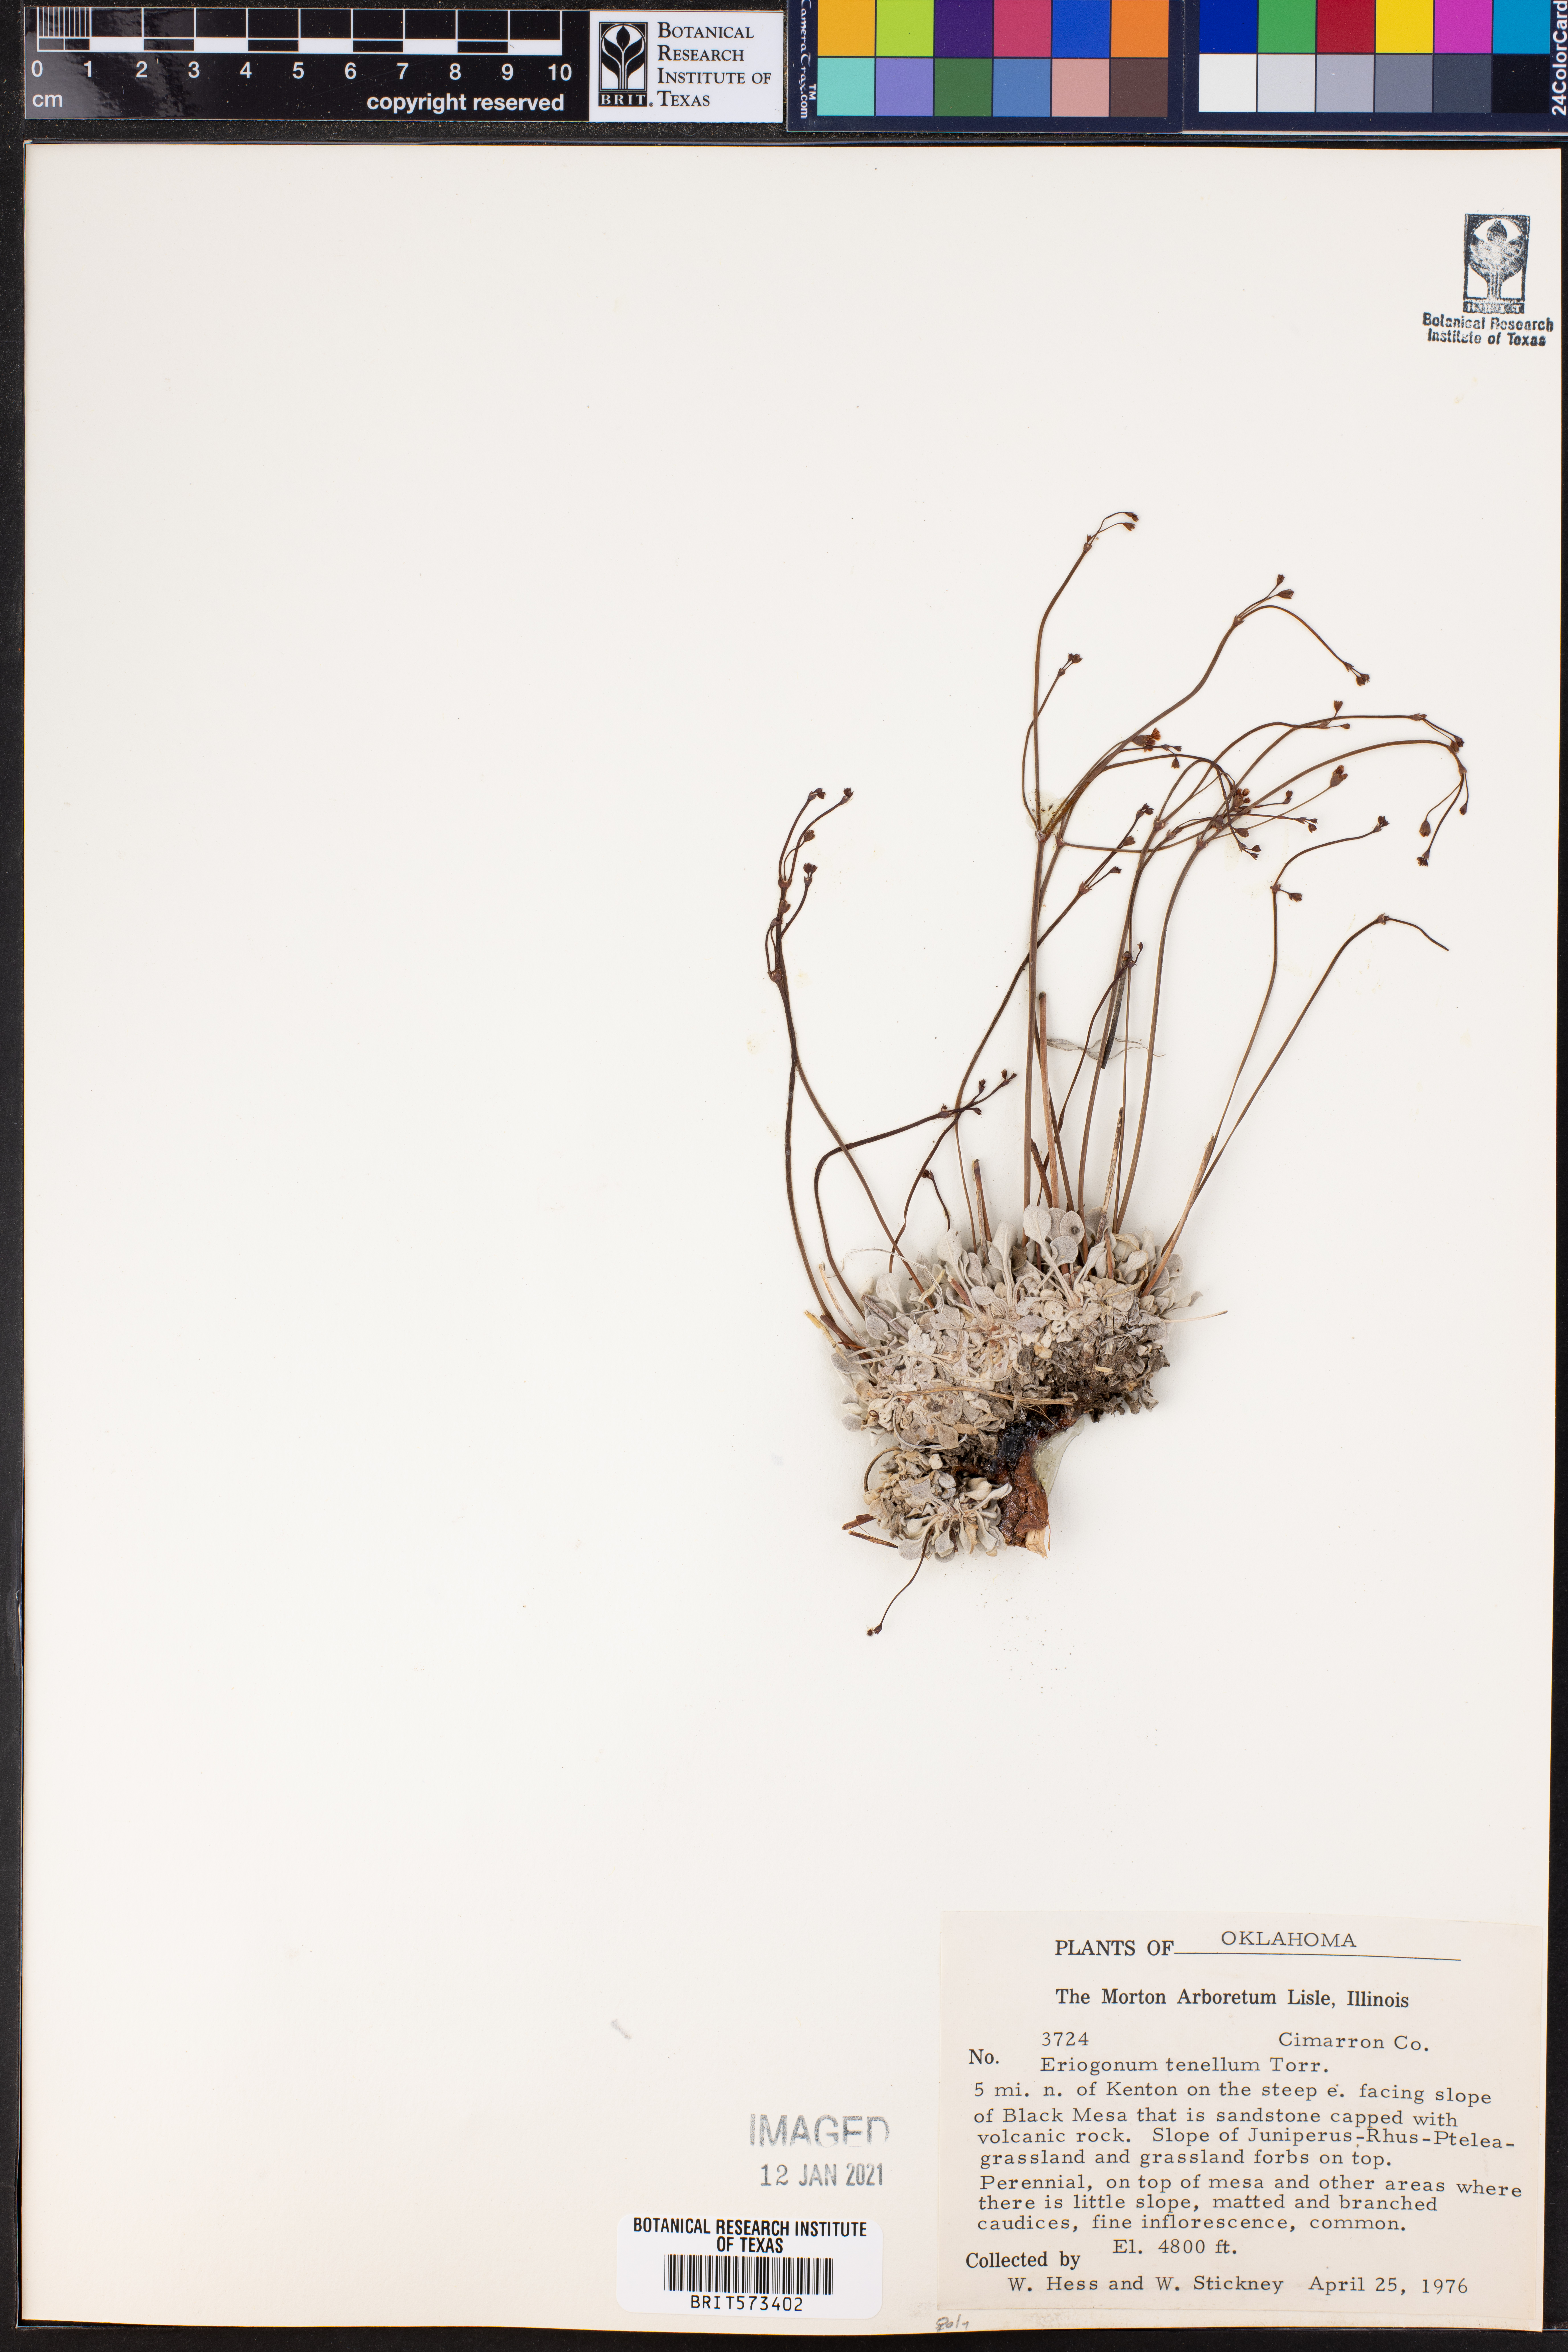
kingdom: Plantae
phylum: Tracheophyta
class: Magnoliopsida
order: Caryophyllales
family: Polygonaceae
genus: Eriogonum
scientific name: Eriogonum tenellum
